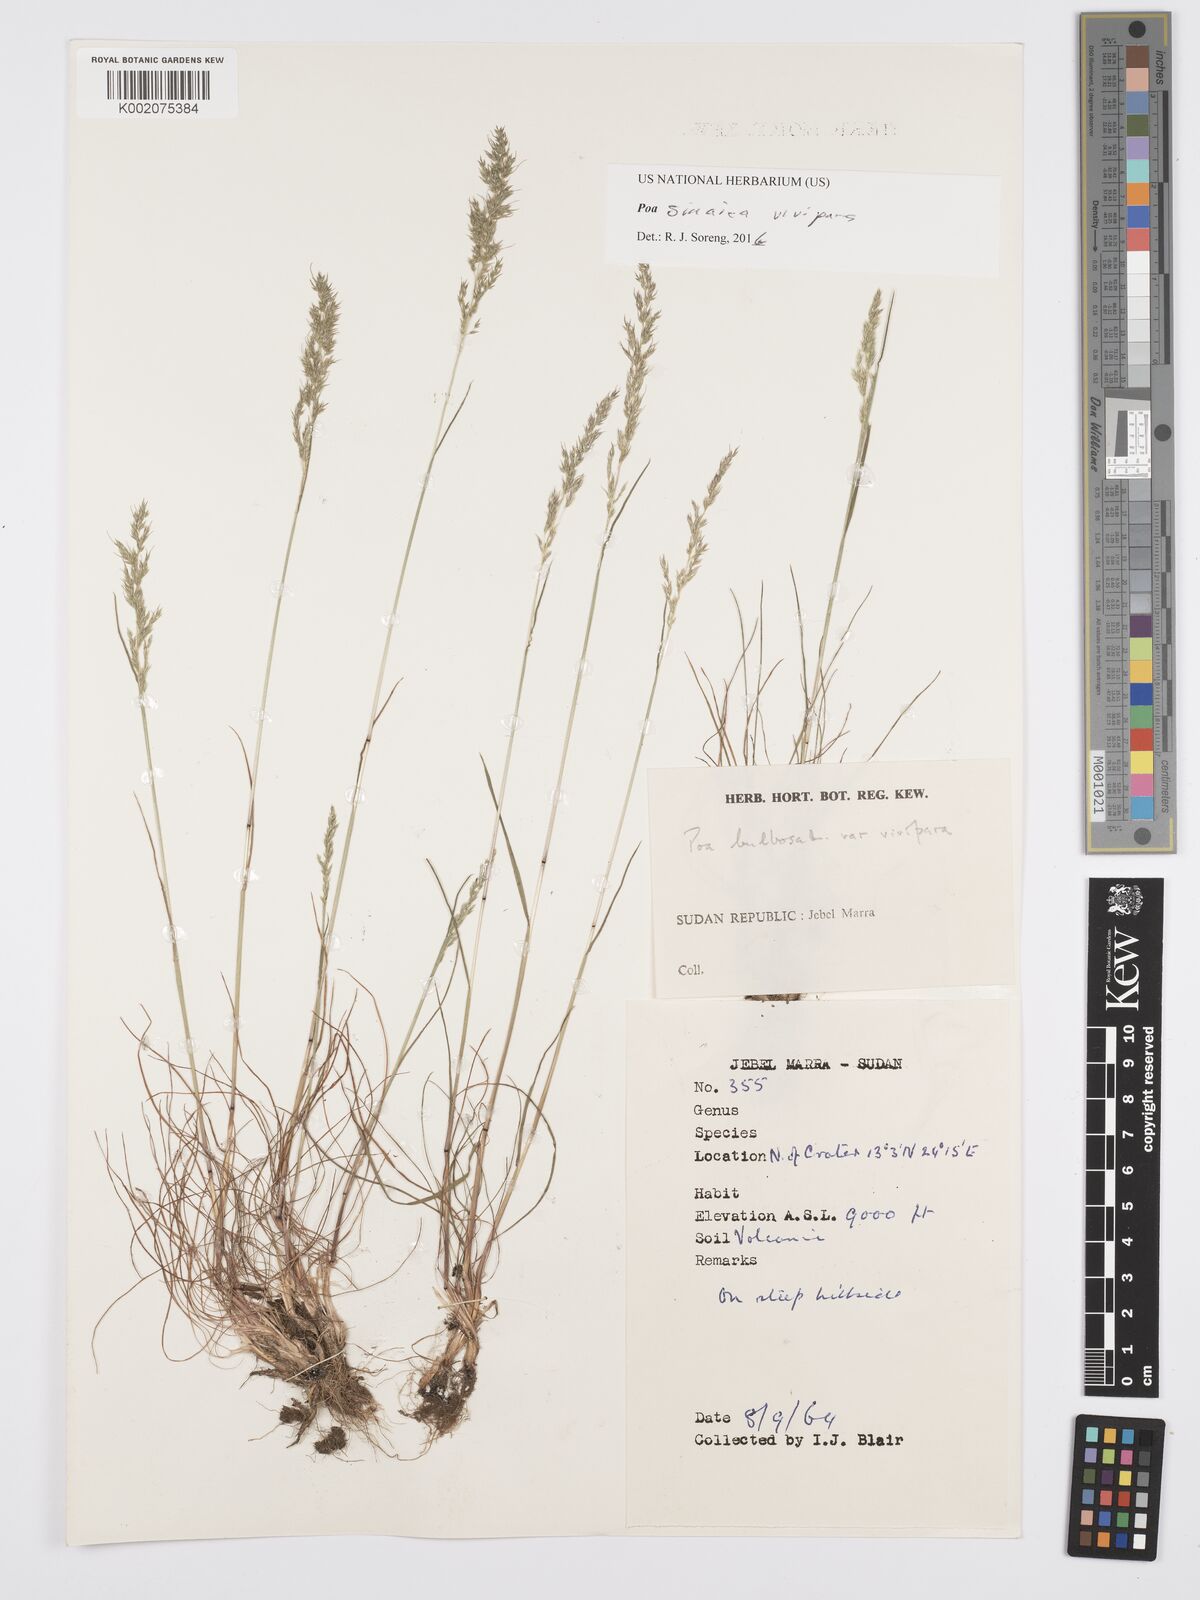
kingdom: Plantae
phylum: Tracheophyta
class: Liliopsida
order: Poales
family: Poaceae
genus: Poa
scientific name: Poa sinaica
